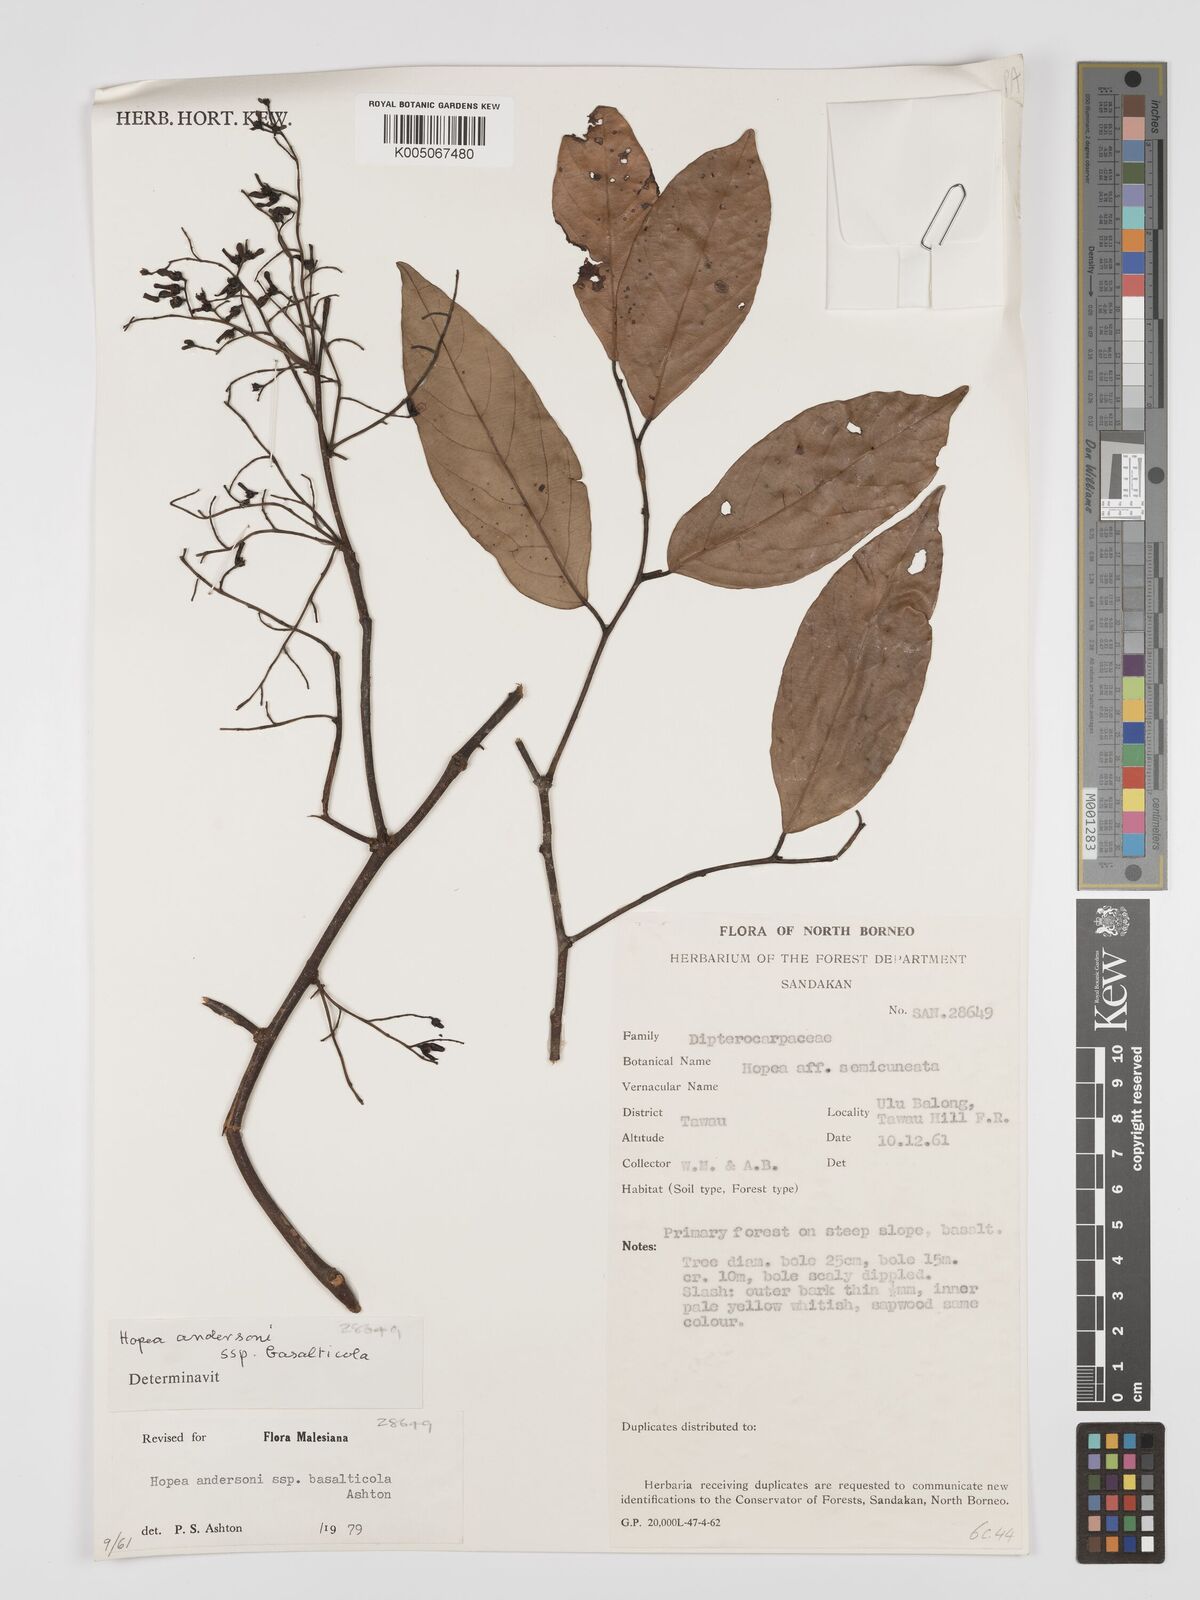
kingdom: Plantae
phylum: Tracheophyta
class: Magnoliopsida
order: Malvales
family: Dipterocarpaceae
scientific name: Dipterocarpaceae
